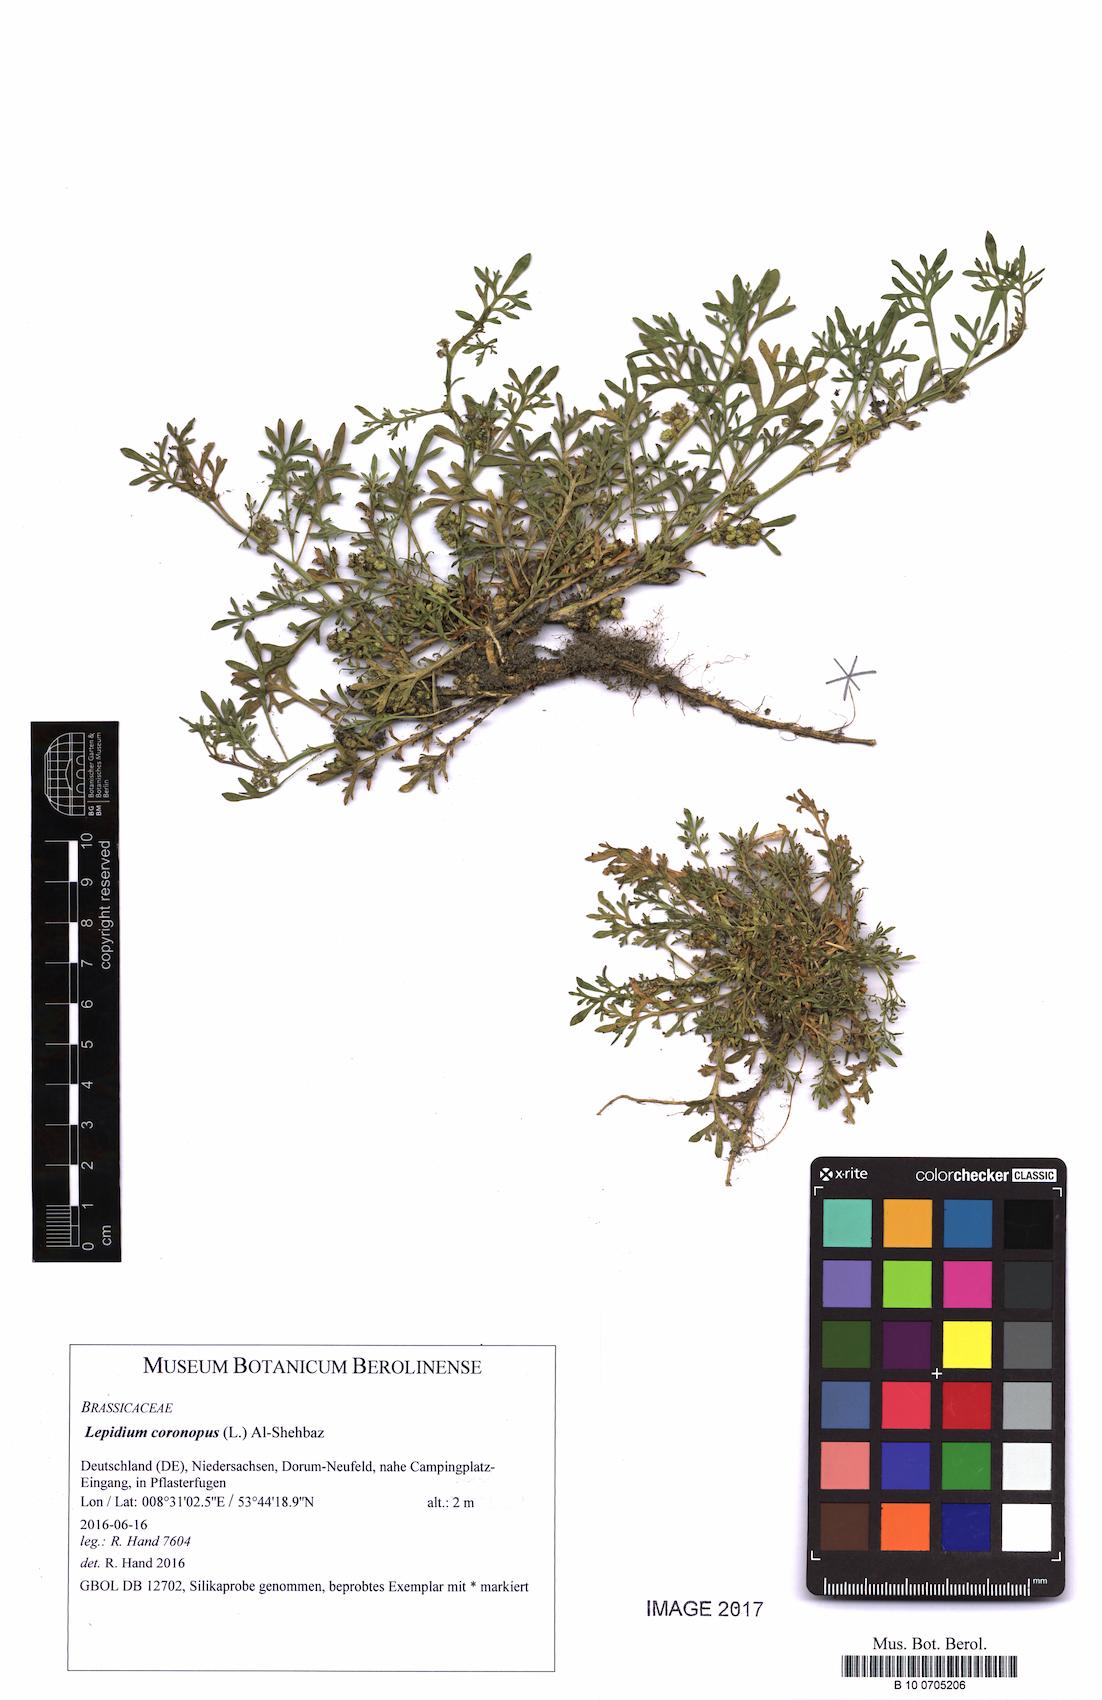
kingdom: Plantae
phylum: Tracheophyta
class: Magnoliopsida
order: Brassicales
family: Brassicaceae
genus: Lepidium
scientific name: Lepidium coronopus
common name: Greater swinecress
